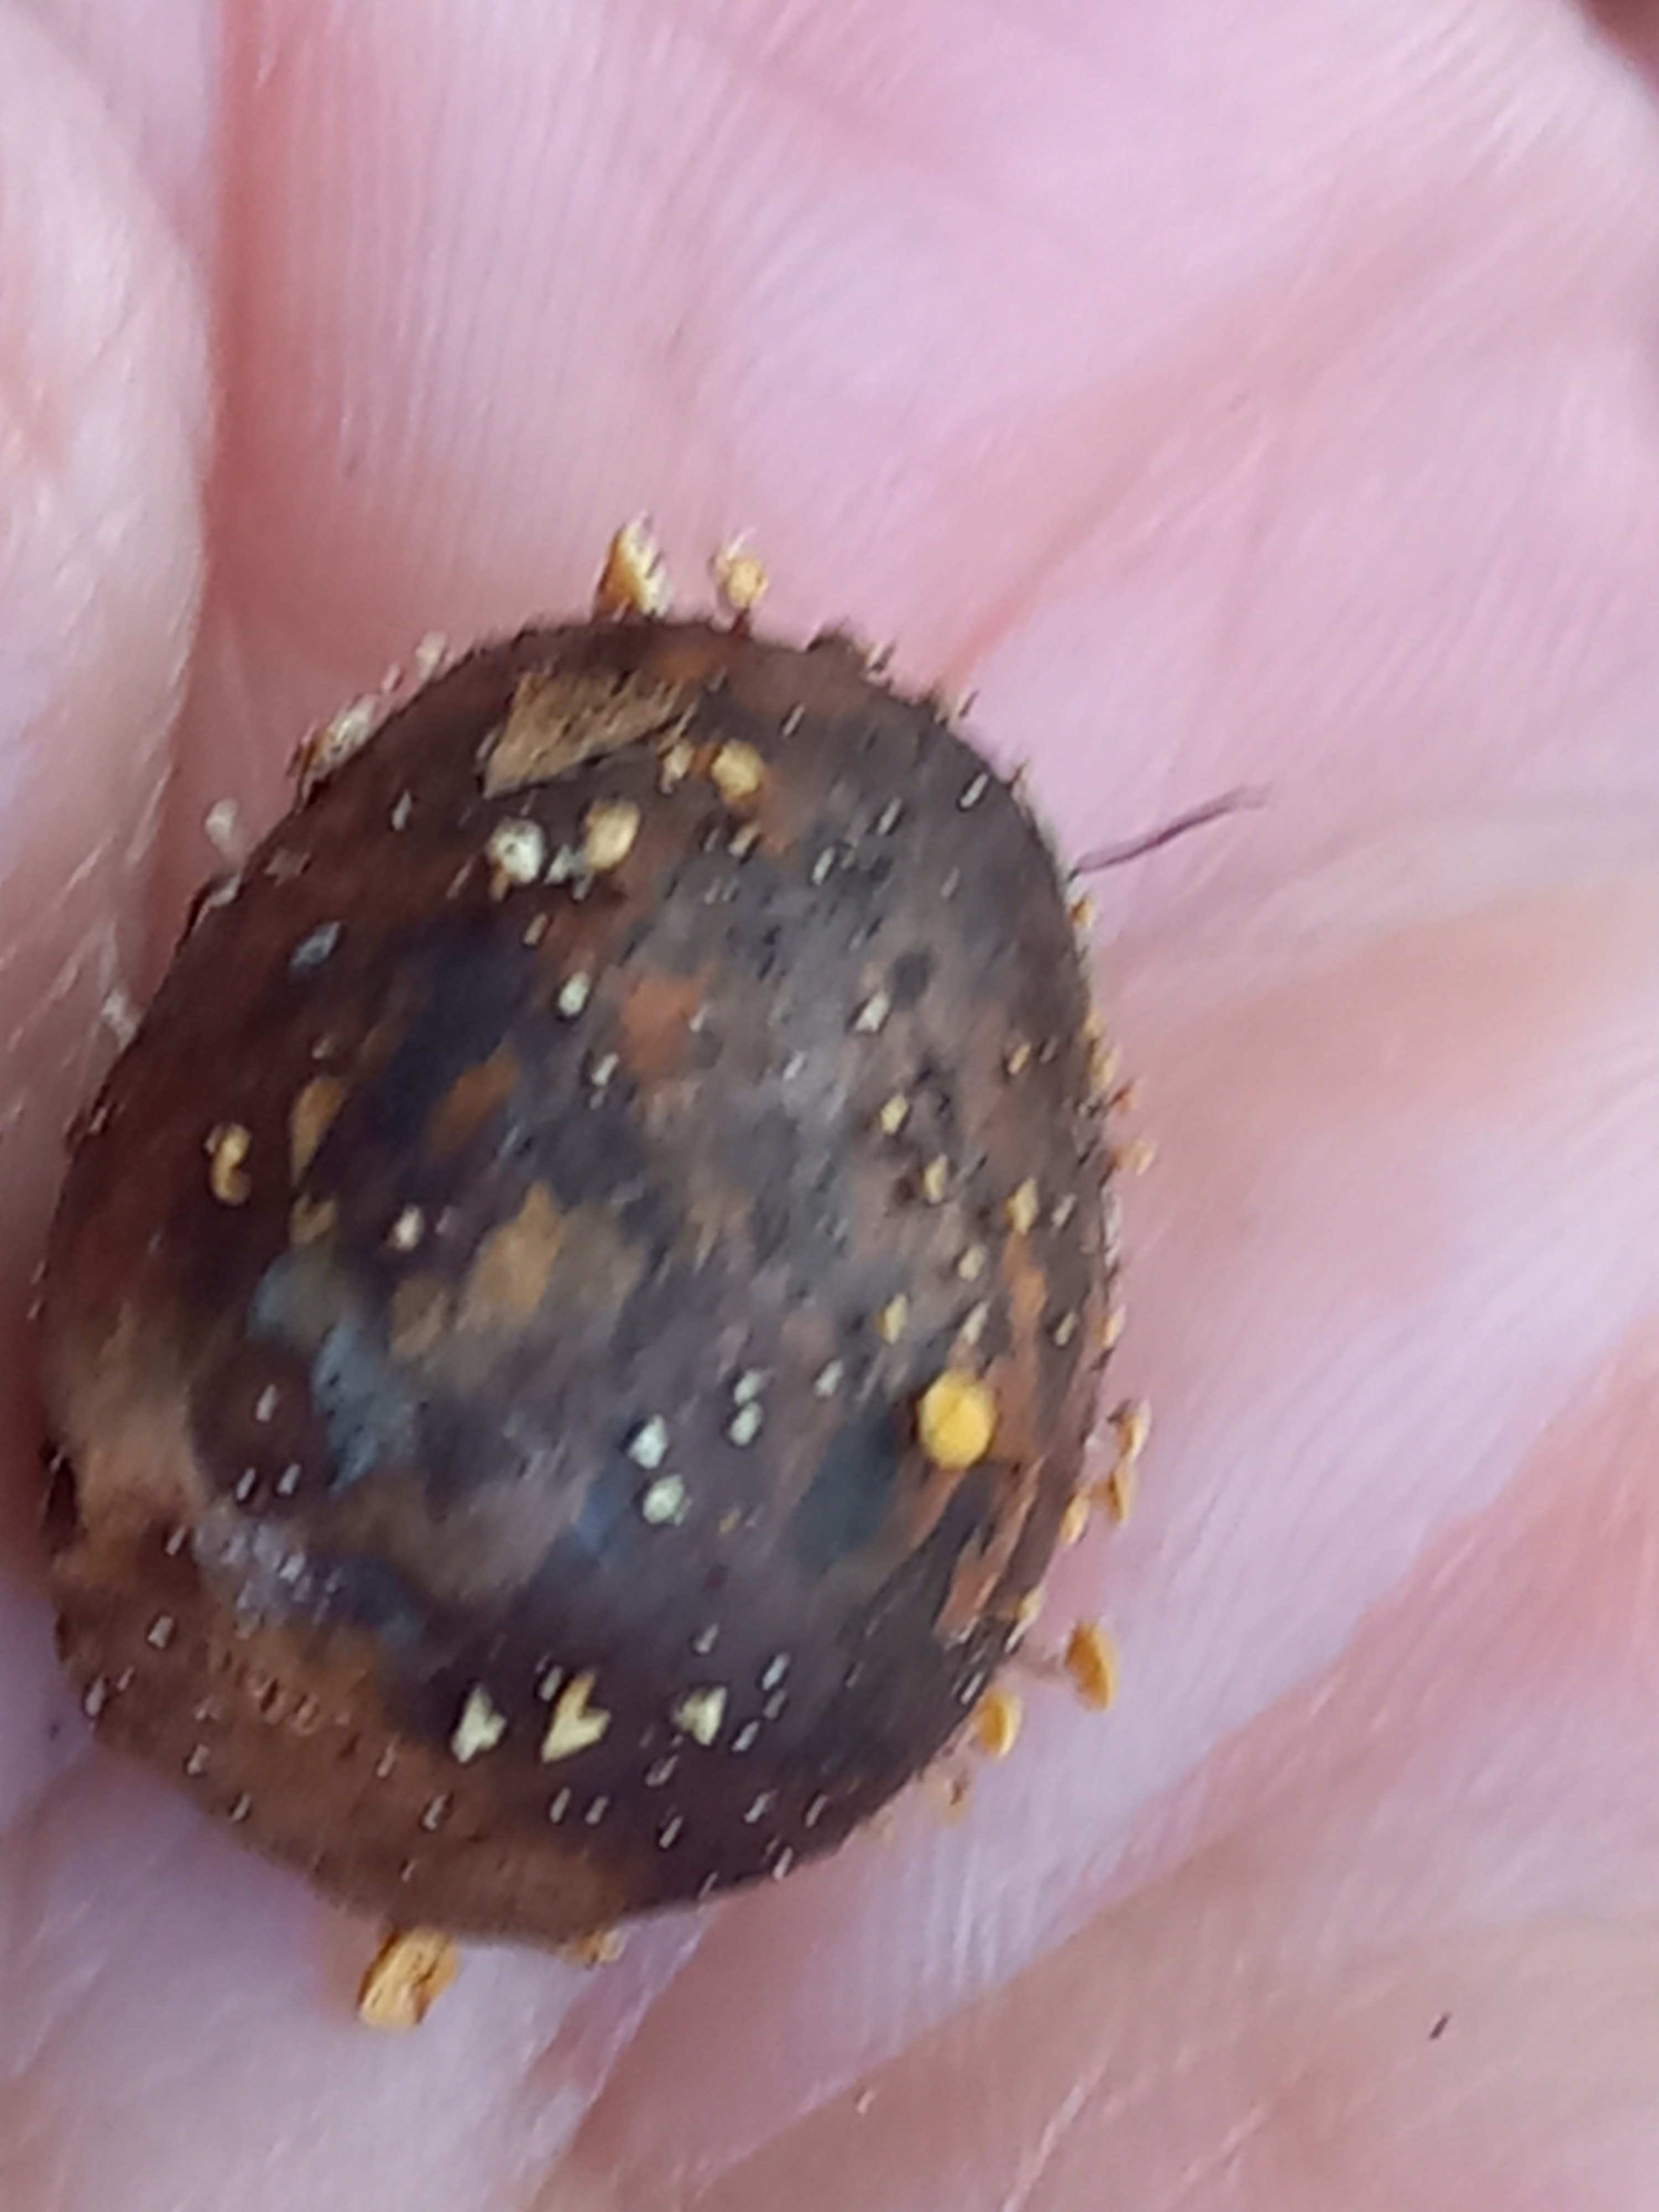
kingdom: Fungi
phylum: Ascomycota
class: Leotiomycetes
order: Helotiales
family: Helotiaceae
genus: Hymenoscyphus
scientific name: Hymenoscyphus fructigenus
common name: frugt-stilkskive
